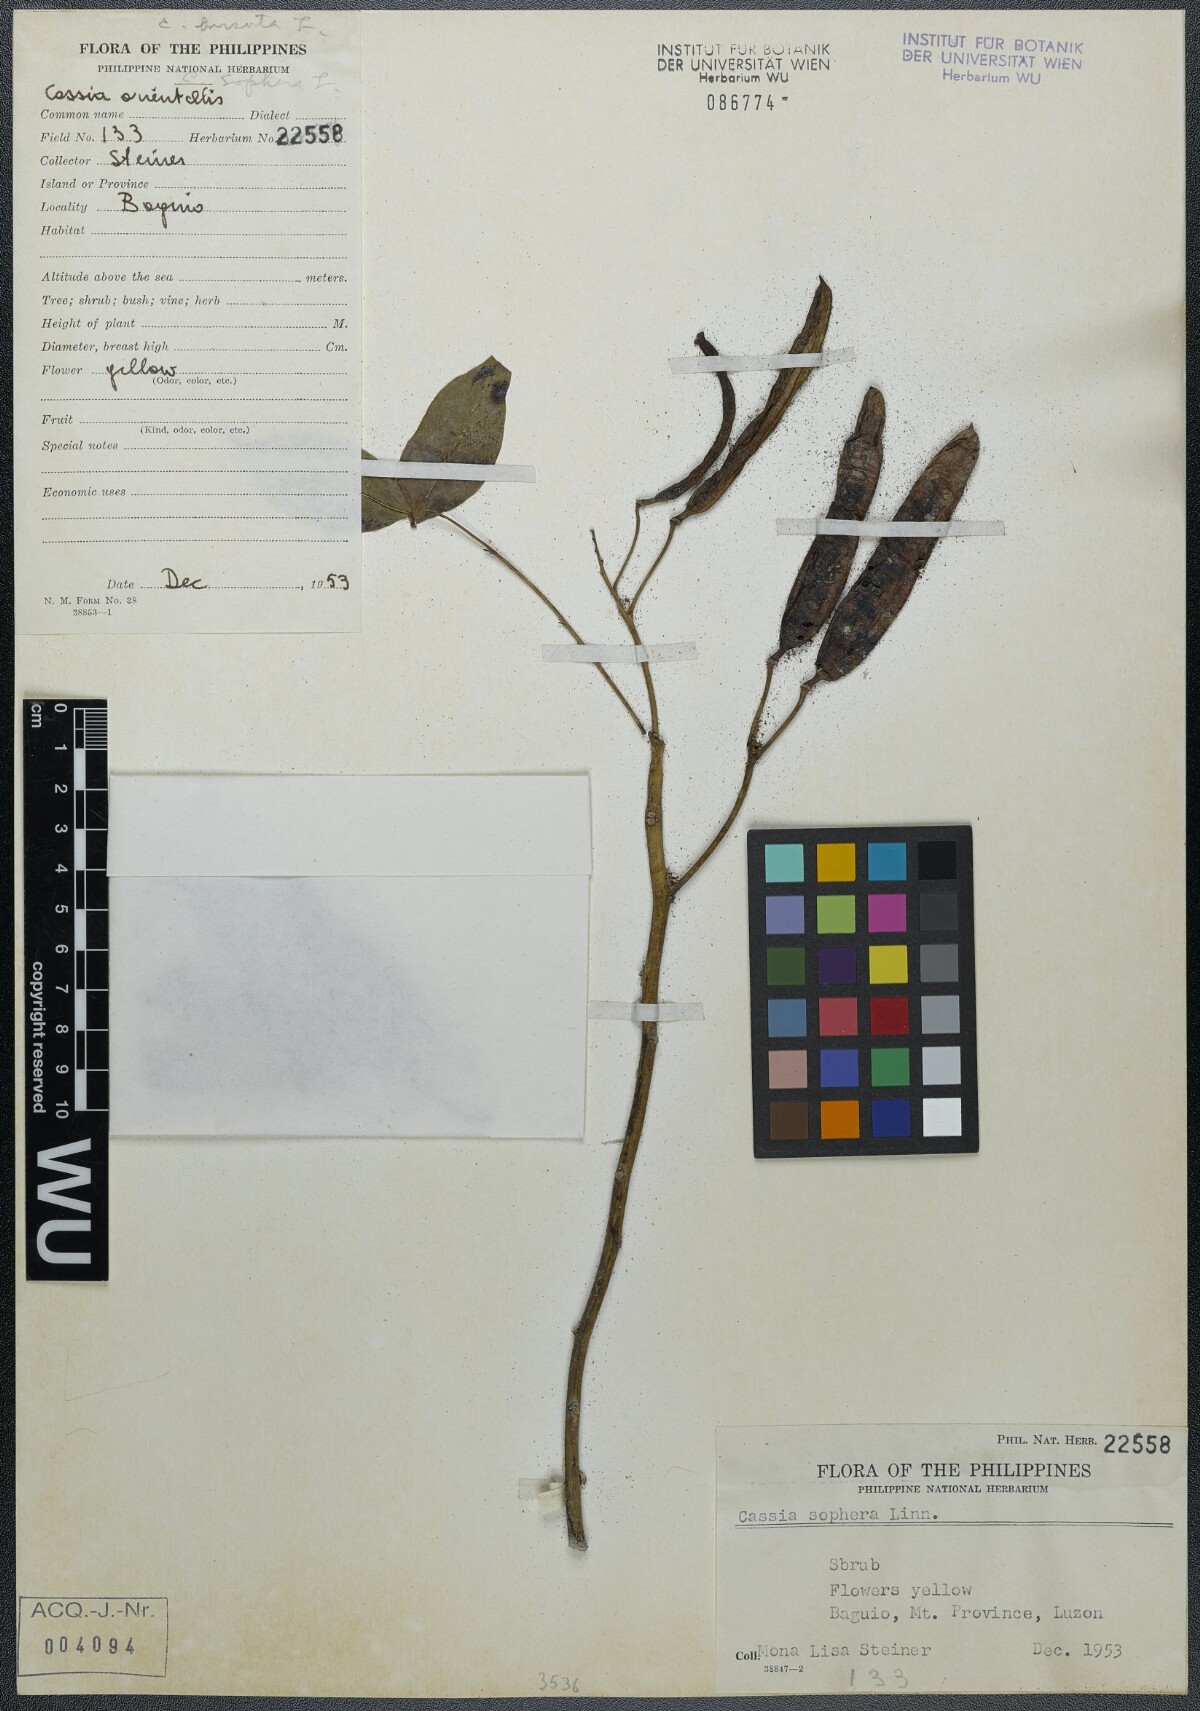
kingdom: Plantae
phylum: Tracheophyta
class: Magnoliopsida
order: Fabales
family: Fabaceae
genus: Senna
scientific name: Senna sophera
